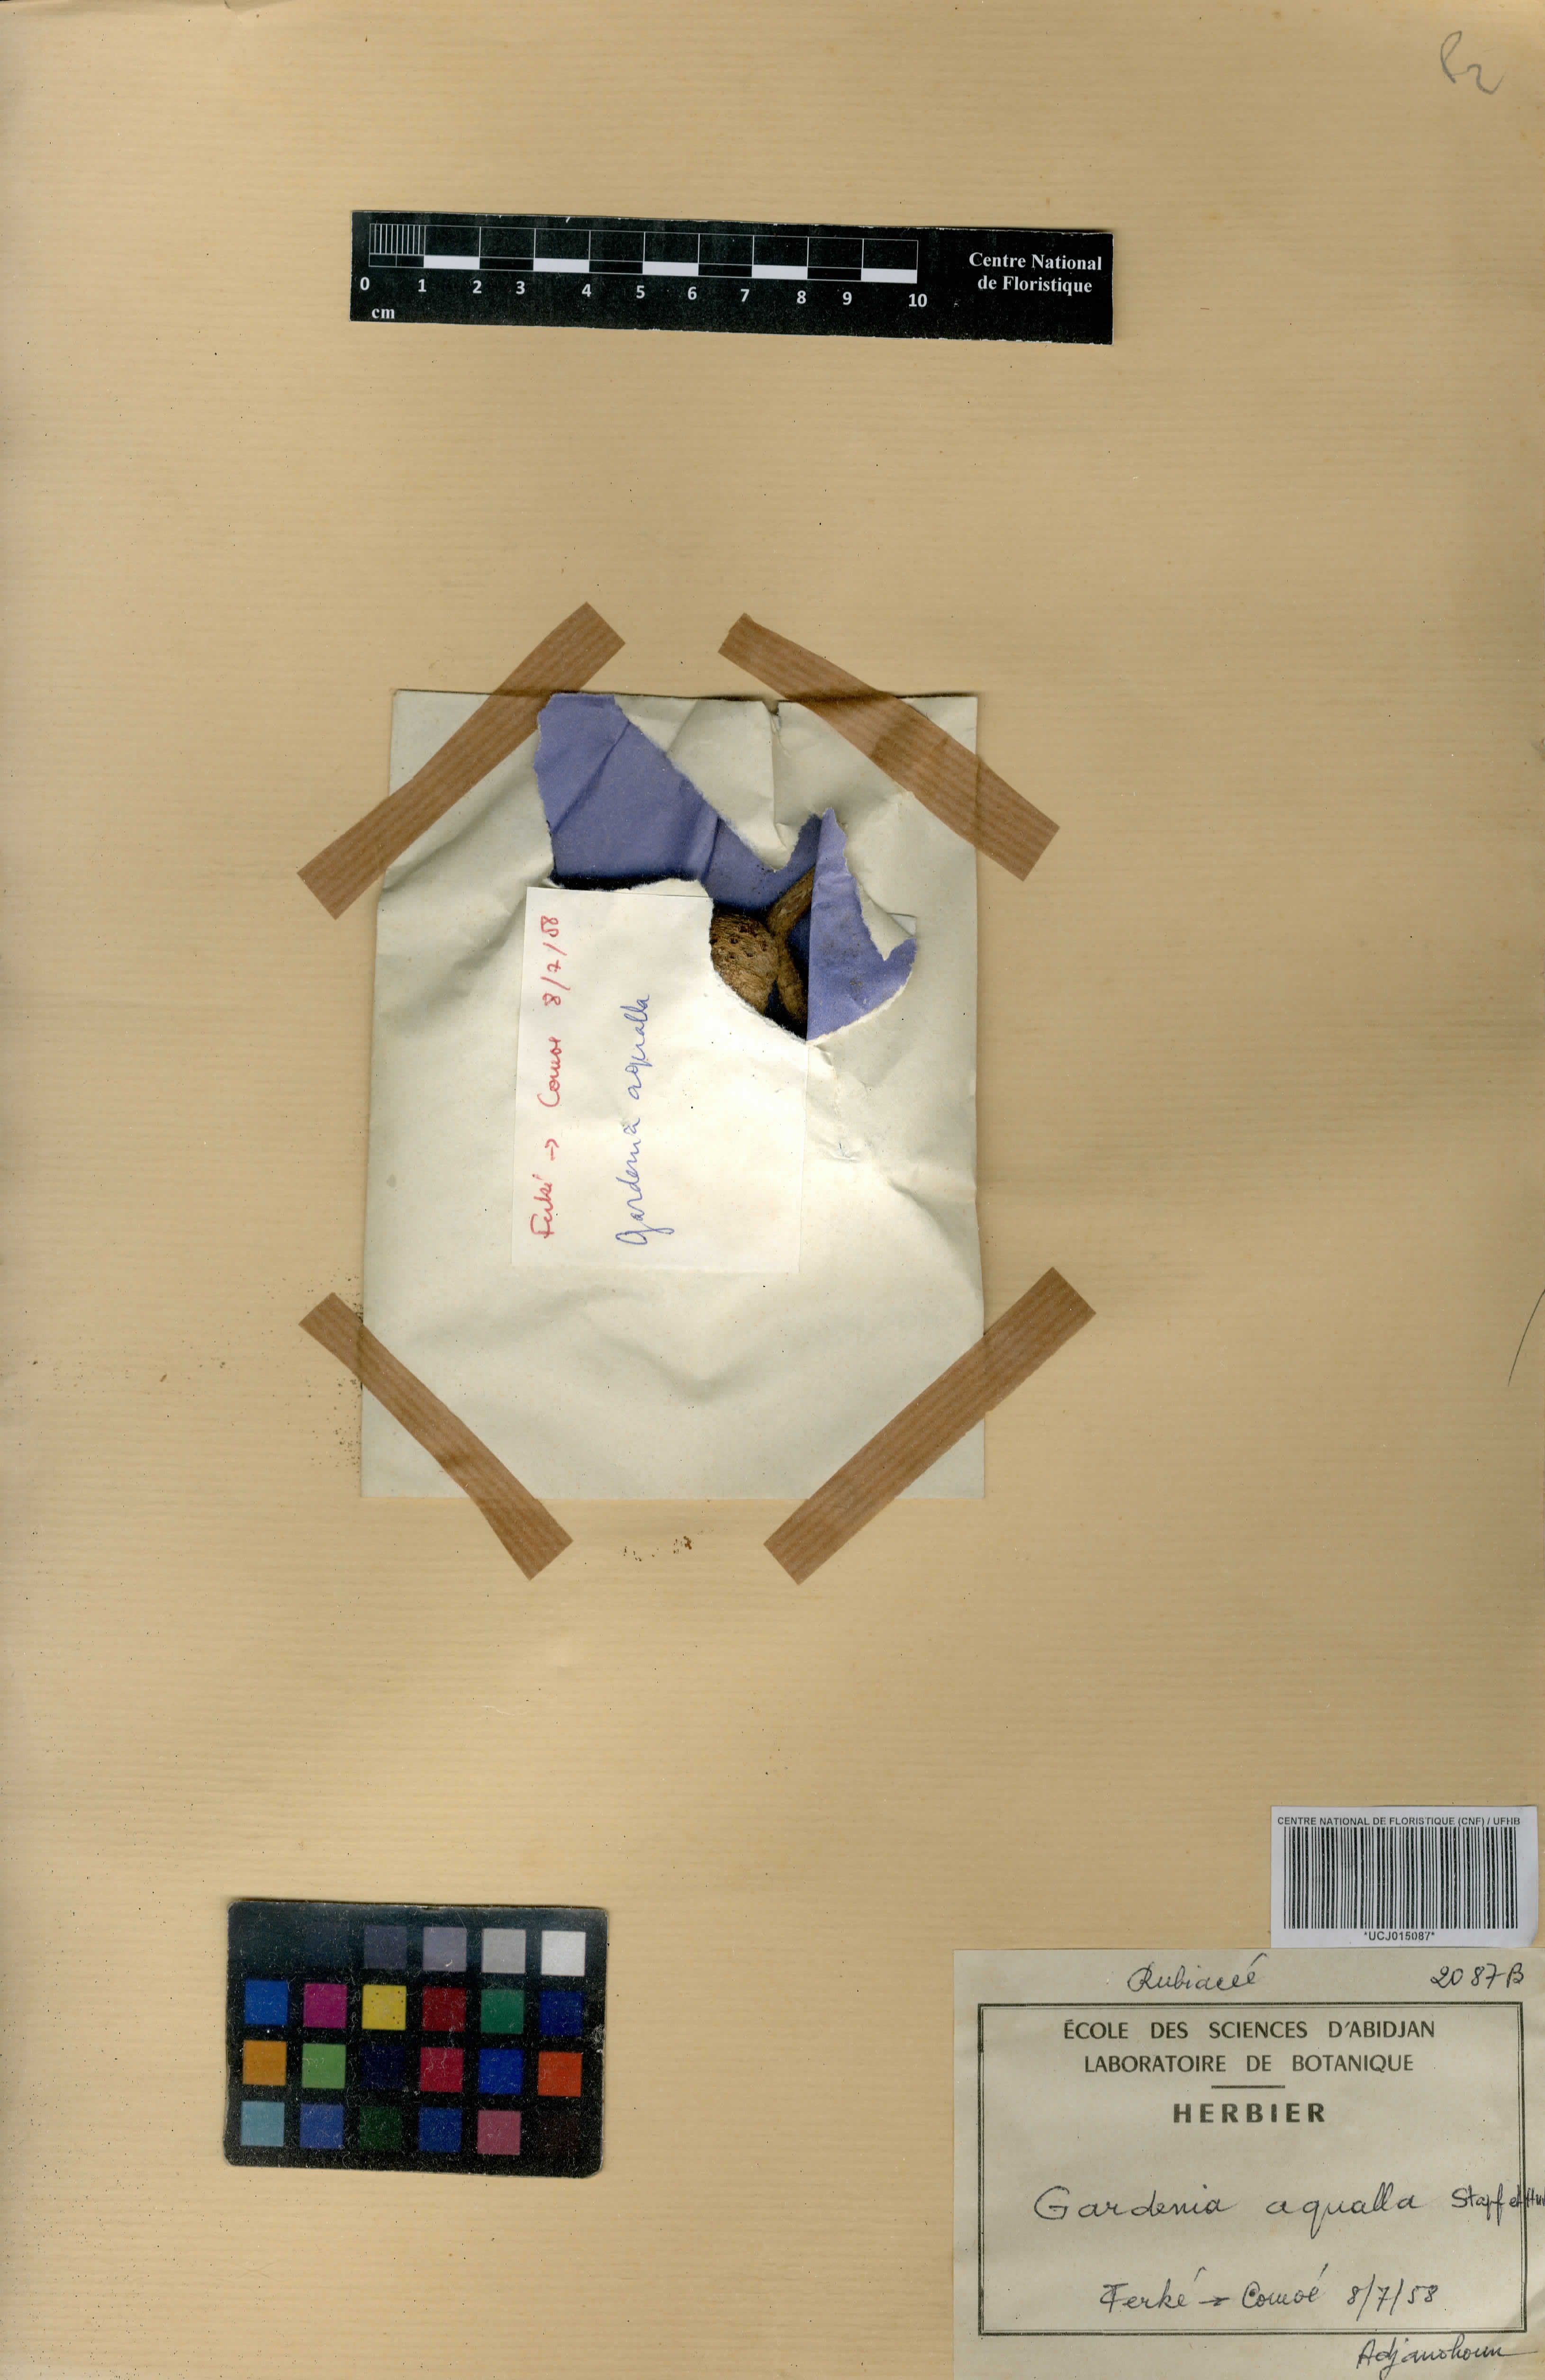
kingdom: Plantae
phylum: Tracheophyta
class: Magnoliopsida
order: Gentianales
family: Rubiaceae
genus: Gardenia
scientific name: Gardenia aqualla
